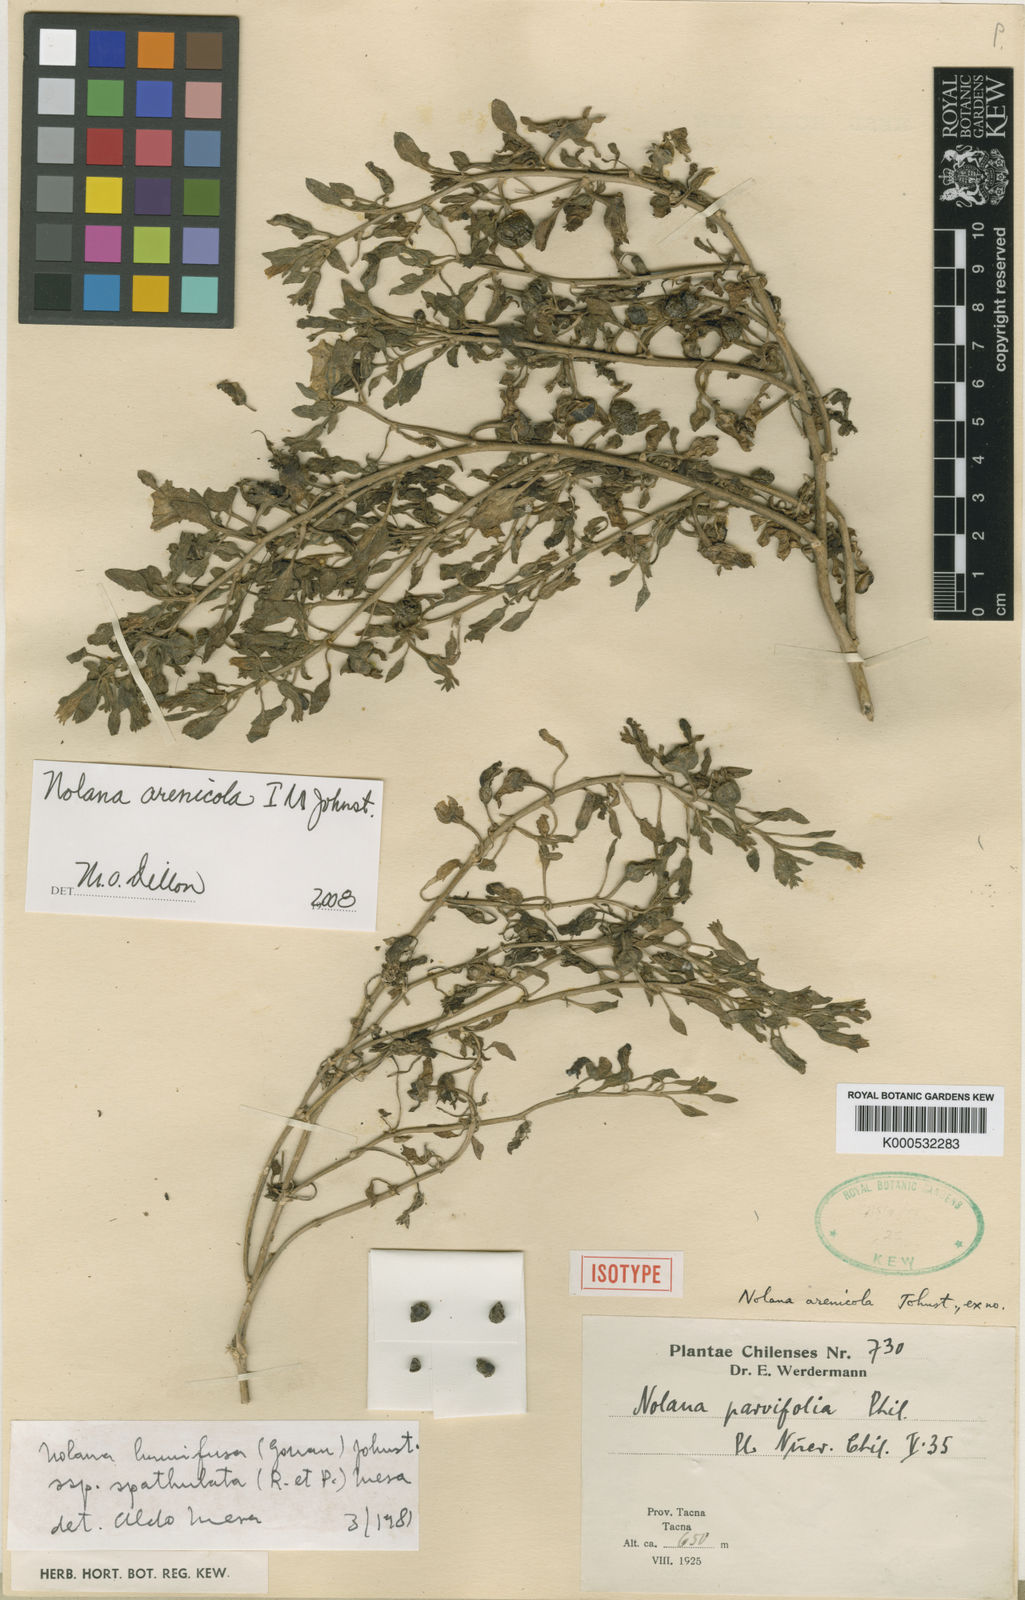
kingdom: Plantae
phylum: Tracheophyta
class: Magnoliopsida
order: Solanales
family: Solanaceae
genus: Nolana
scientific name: Nolana humifusa
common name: Trailing chilean-bellflower
